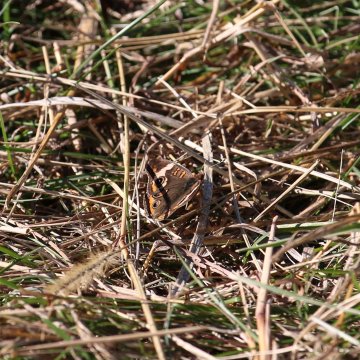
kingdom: Animalia
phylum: Arthropoda
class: Insecta
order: Lepidoptera
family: Nymphalidae
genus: Junonia
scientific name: Junonia coenia
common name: Common Buckeye
